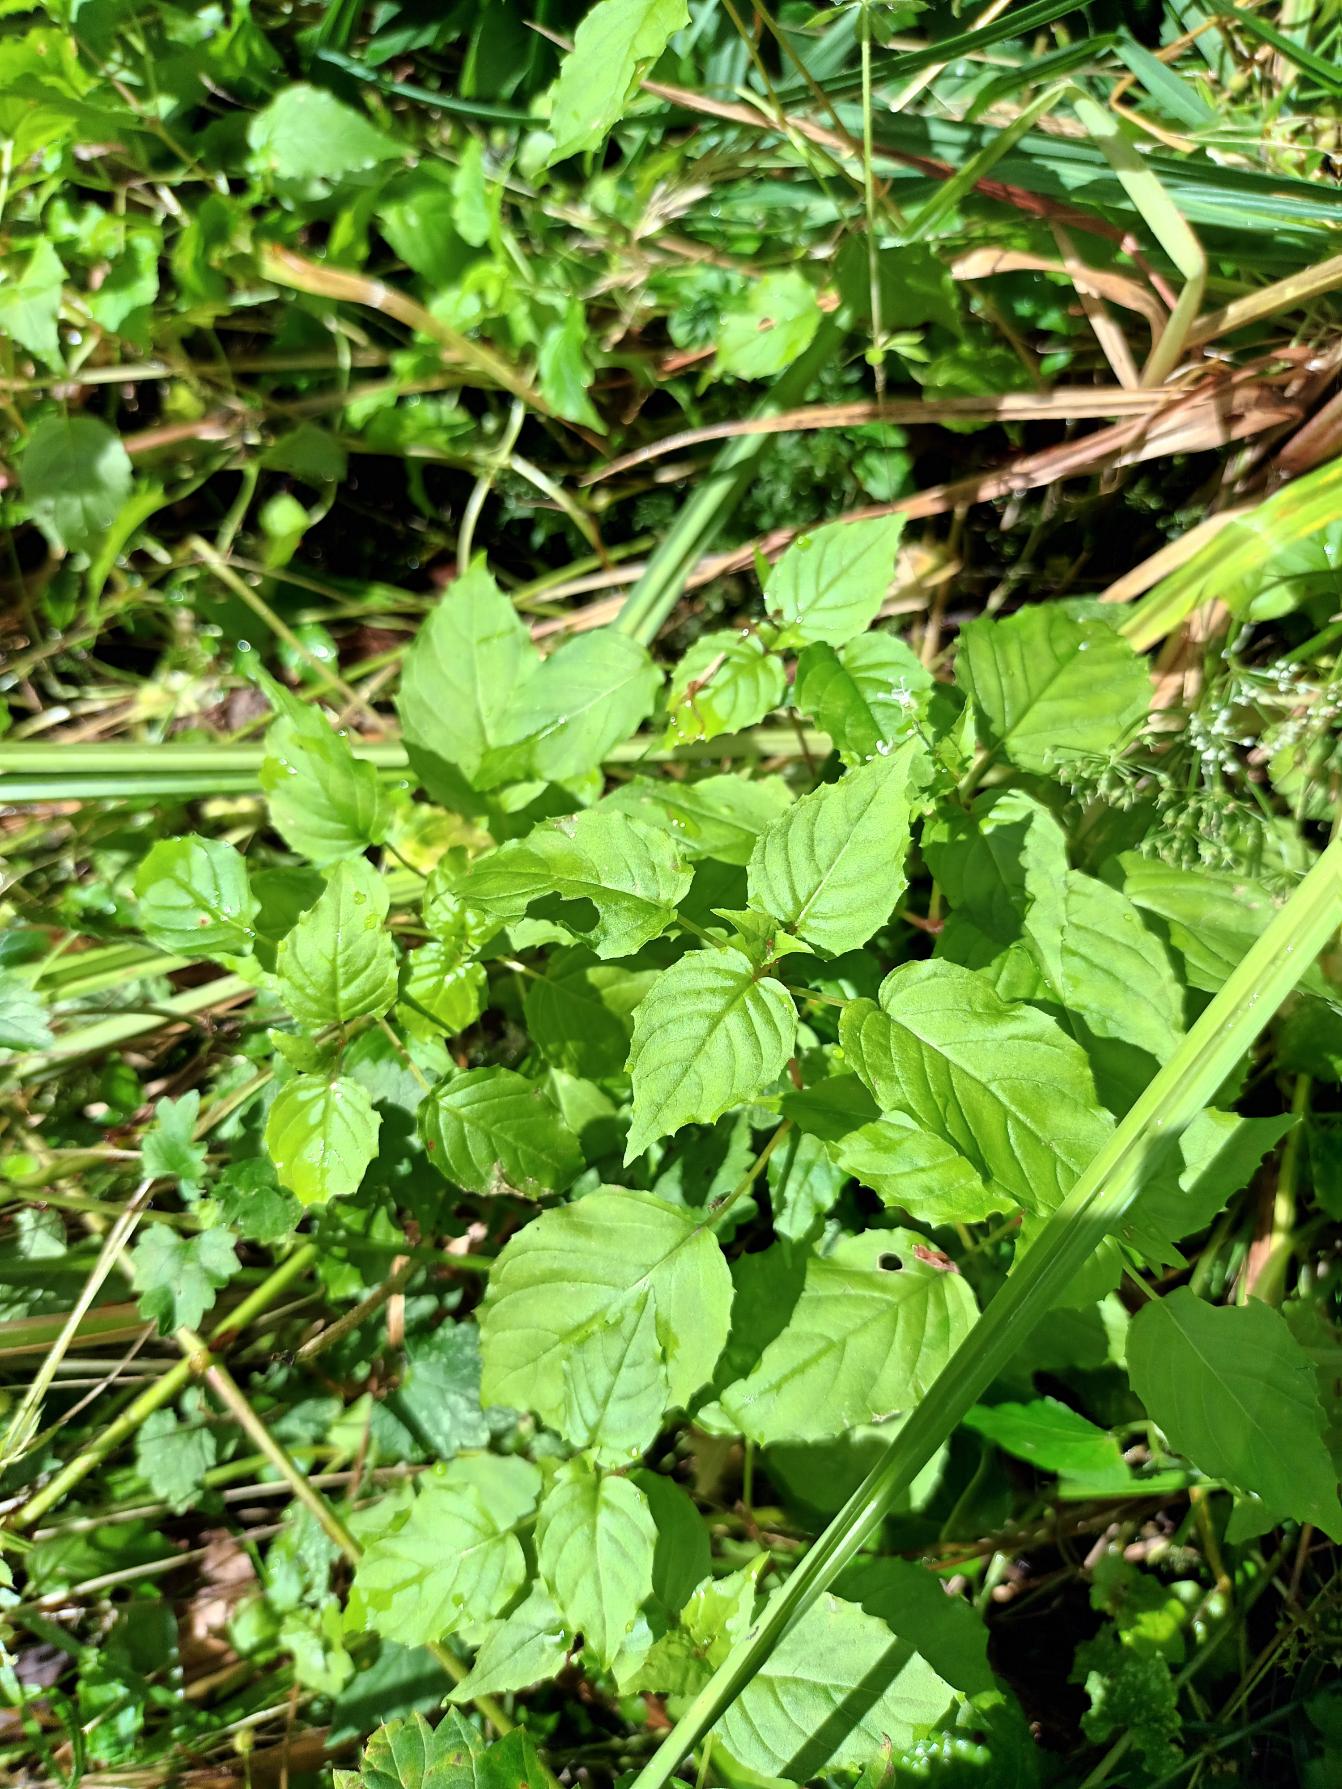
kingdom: Plantae
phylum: Tracheophyta
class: Magnoliopsida
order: Myrtales
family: Onagraceae
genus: Circaea
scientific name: Circaea intermedia
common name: Spidsbladet steffensurt
